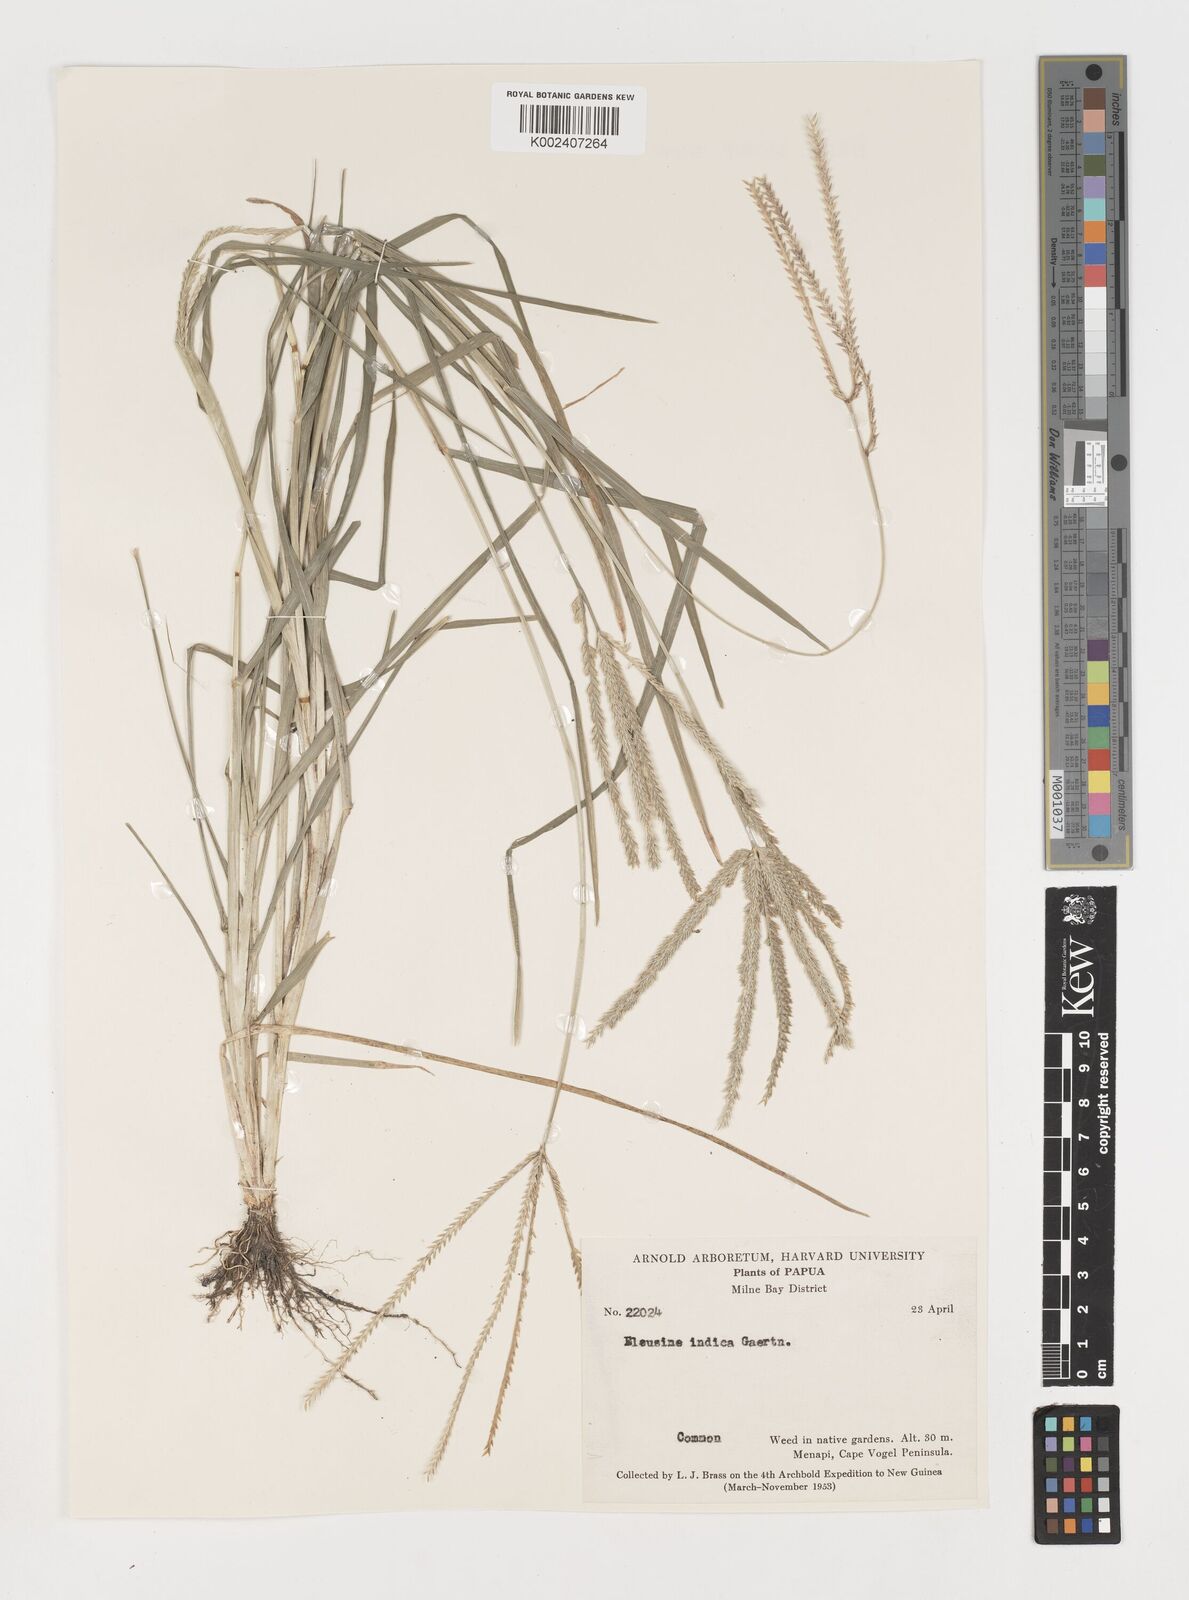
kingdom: Plantae
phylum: Tracheophyta
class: Liliopsida
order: Poales
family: Poaceae
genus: Eleusine
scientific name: Eleusine indica
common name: Yard-grass
